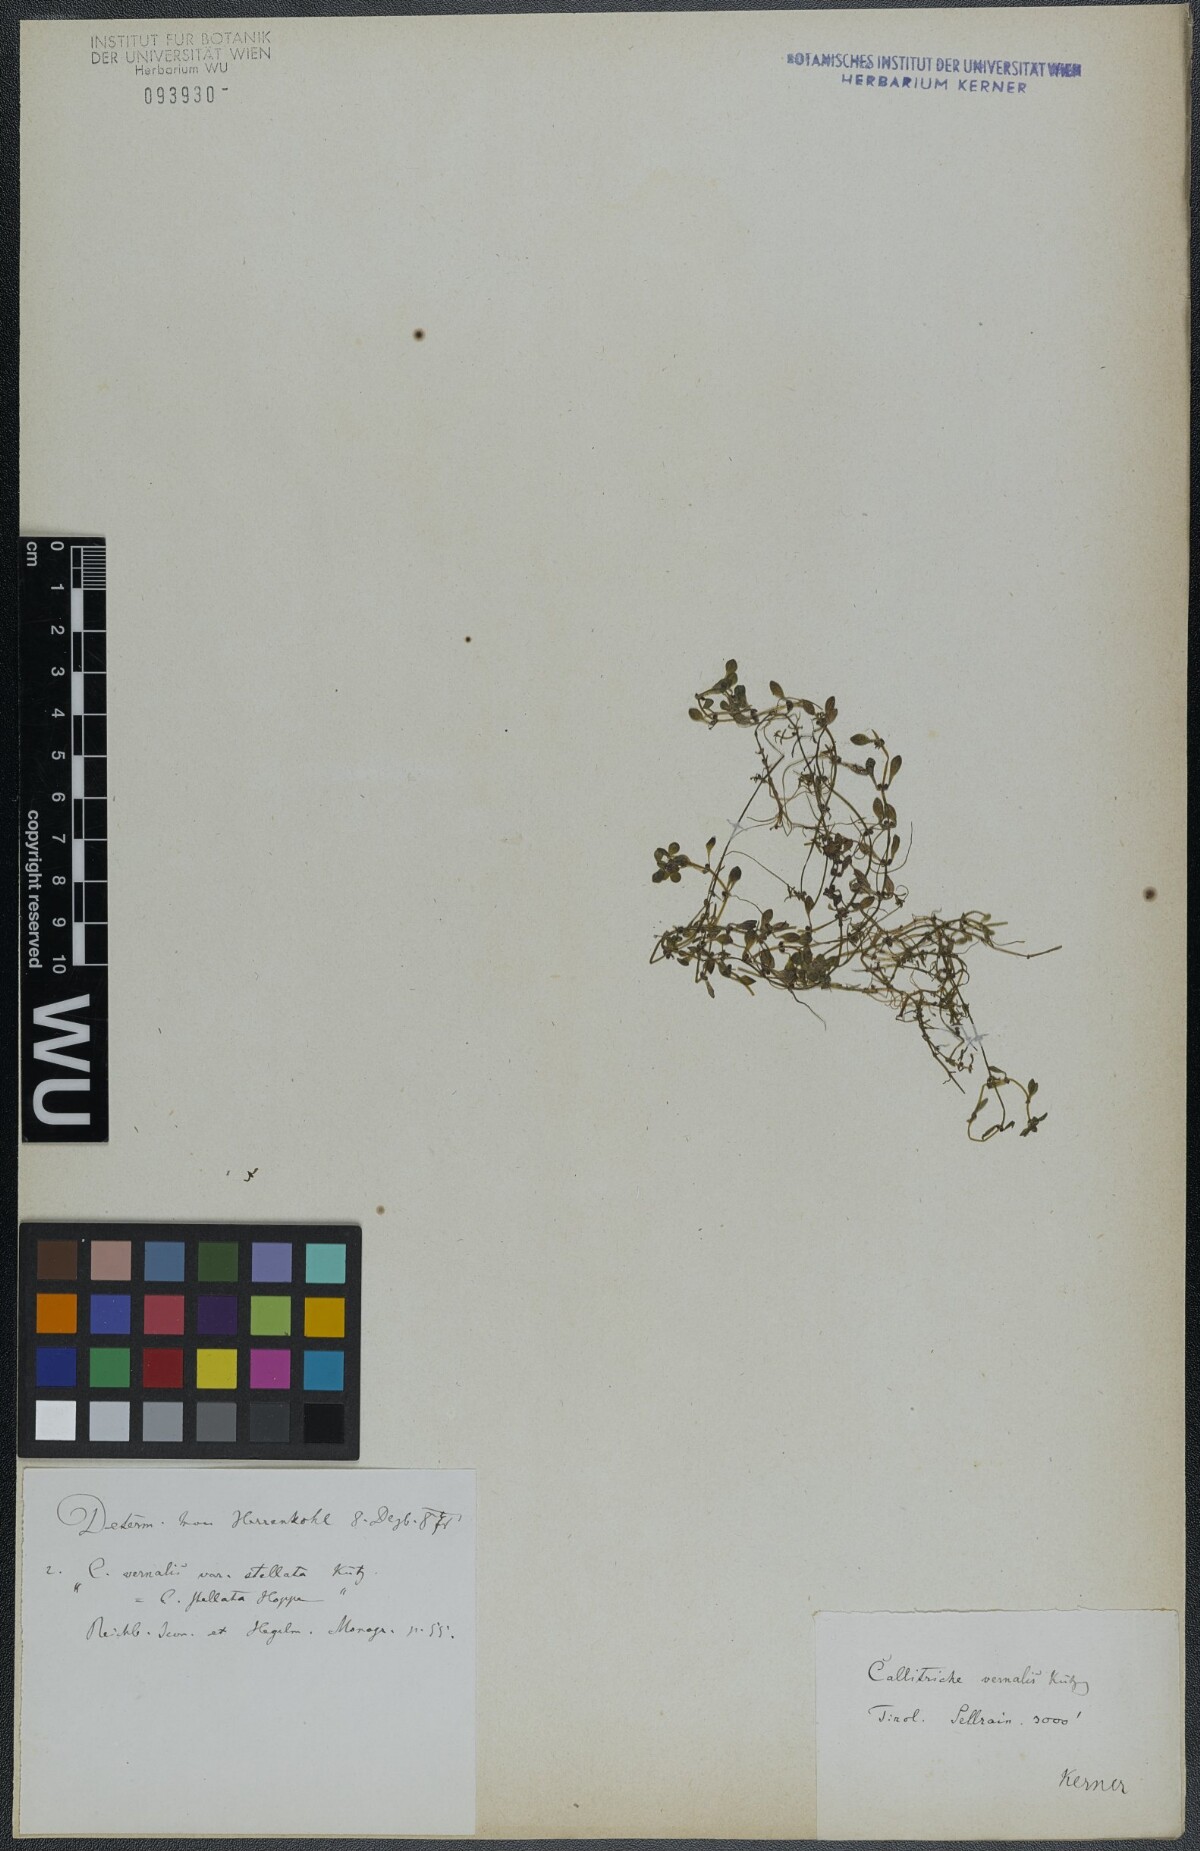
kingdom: Plantae
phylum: Tracheophyta
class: Magnoliopsida
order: Lamiales
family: Plantaginaceae
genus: Callitriche
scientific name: Callitriche palustris
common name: Spring water-starwort
